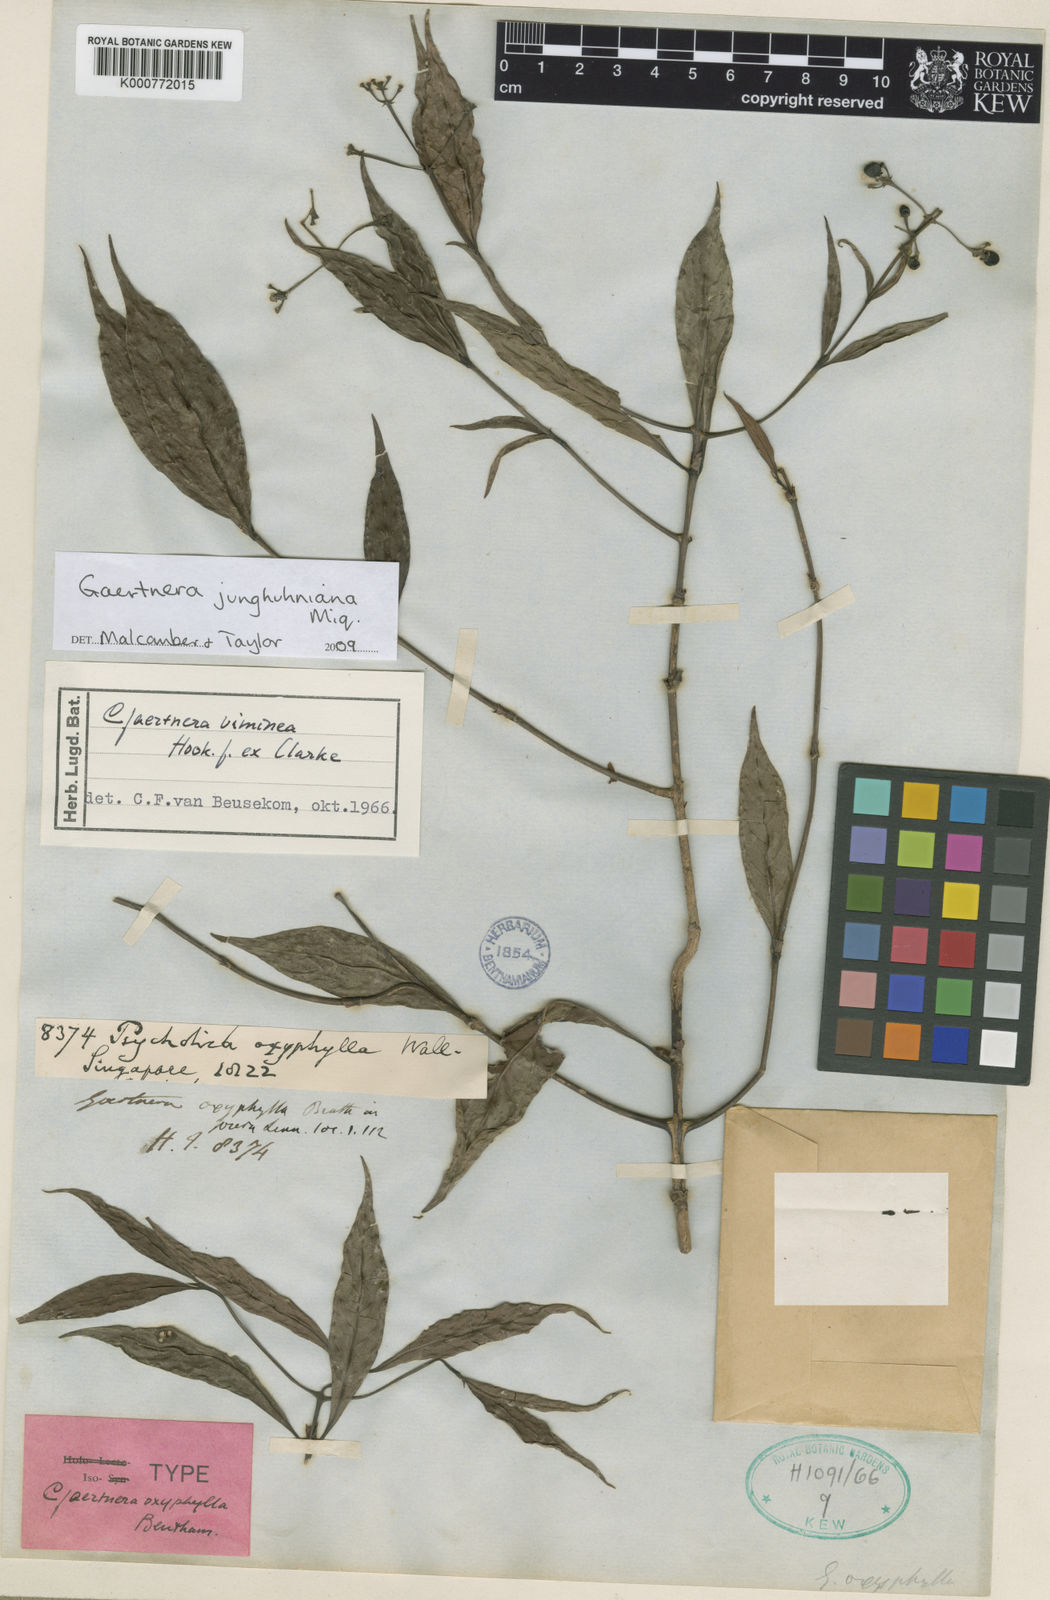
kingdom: Plantae
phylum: Tracheophyta
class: Magnoliopsida
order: Gentianales
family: Rubiaceae
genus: Gaertnera
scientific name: Gaertnera junghuhniana
